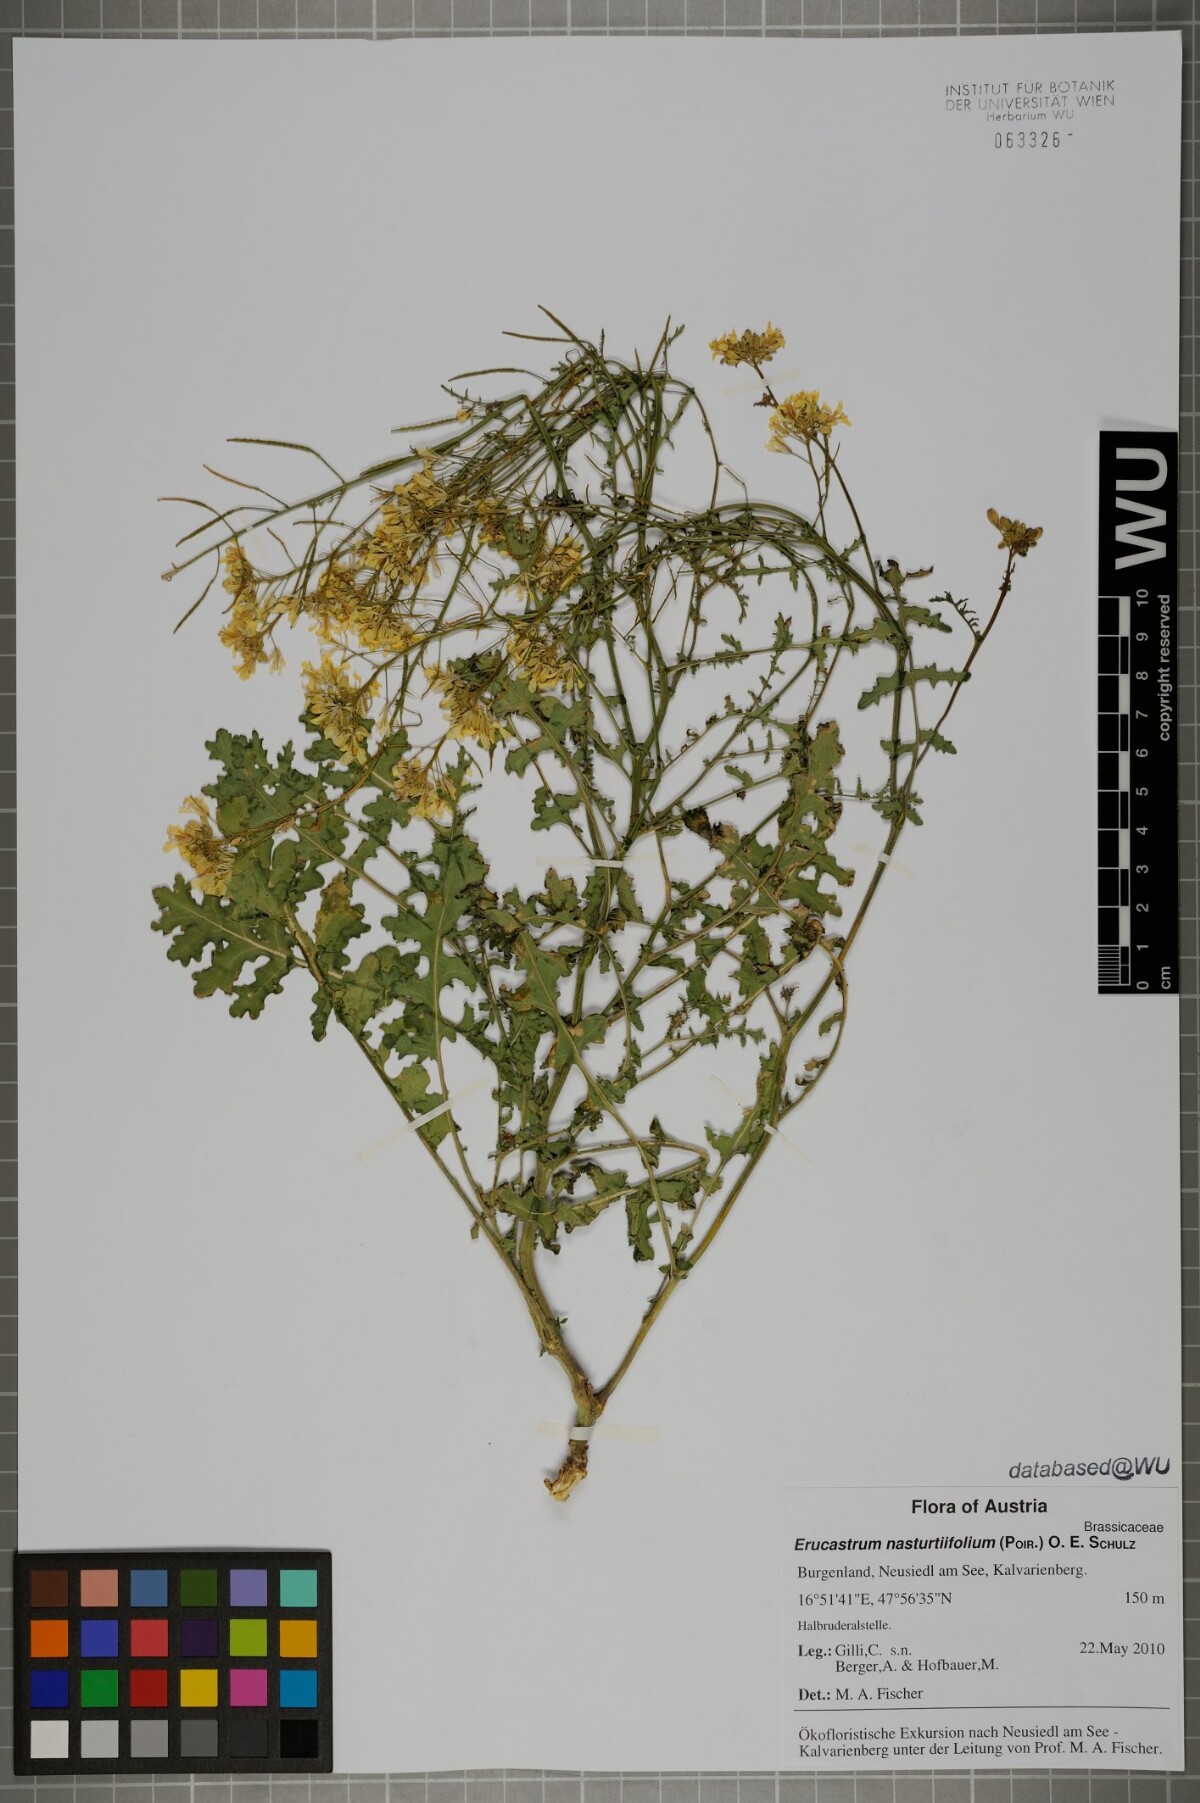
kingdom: Plantae
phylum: Tracheophyta
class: Magnoliopsida
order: Brassicales
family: Brassicaceae
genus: Erucastrum
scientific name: Erucastrum nasturtiifolium
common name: Watercress-leaf rocket
